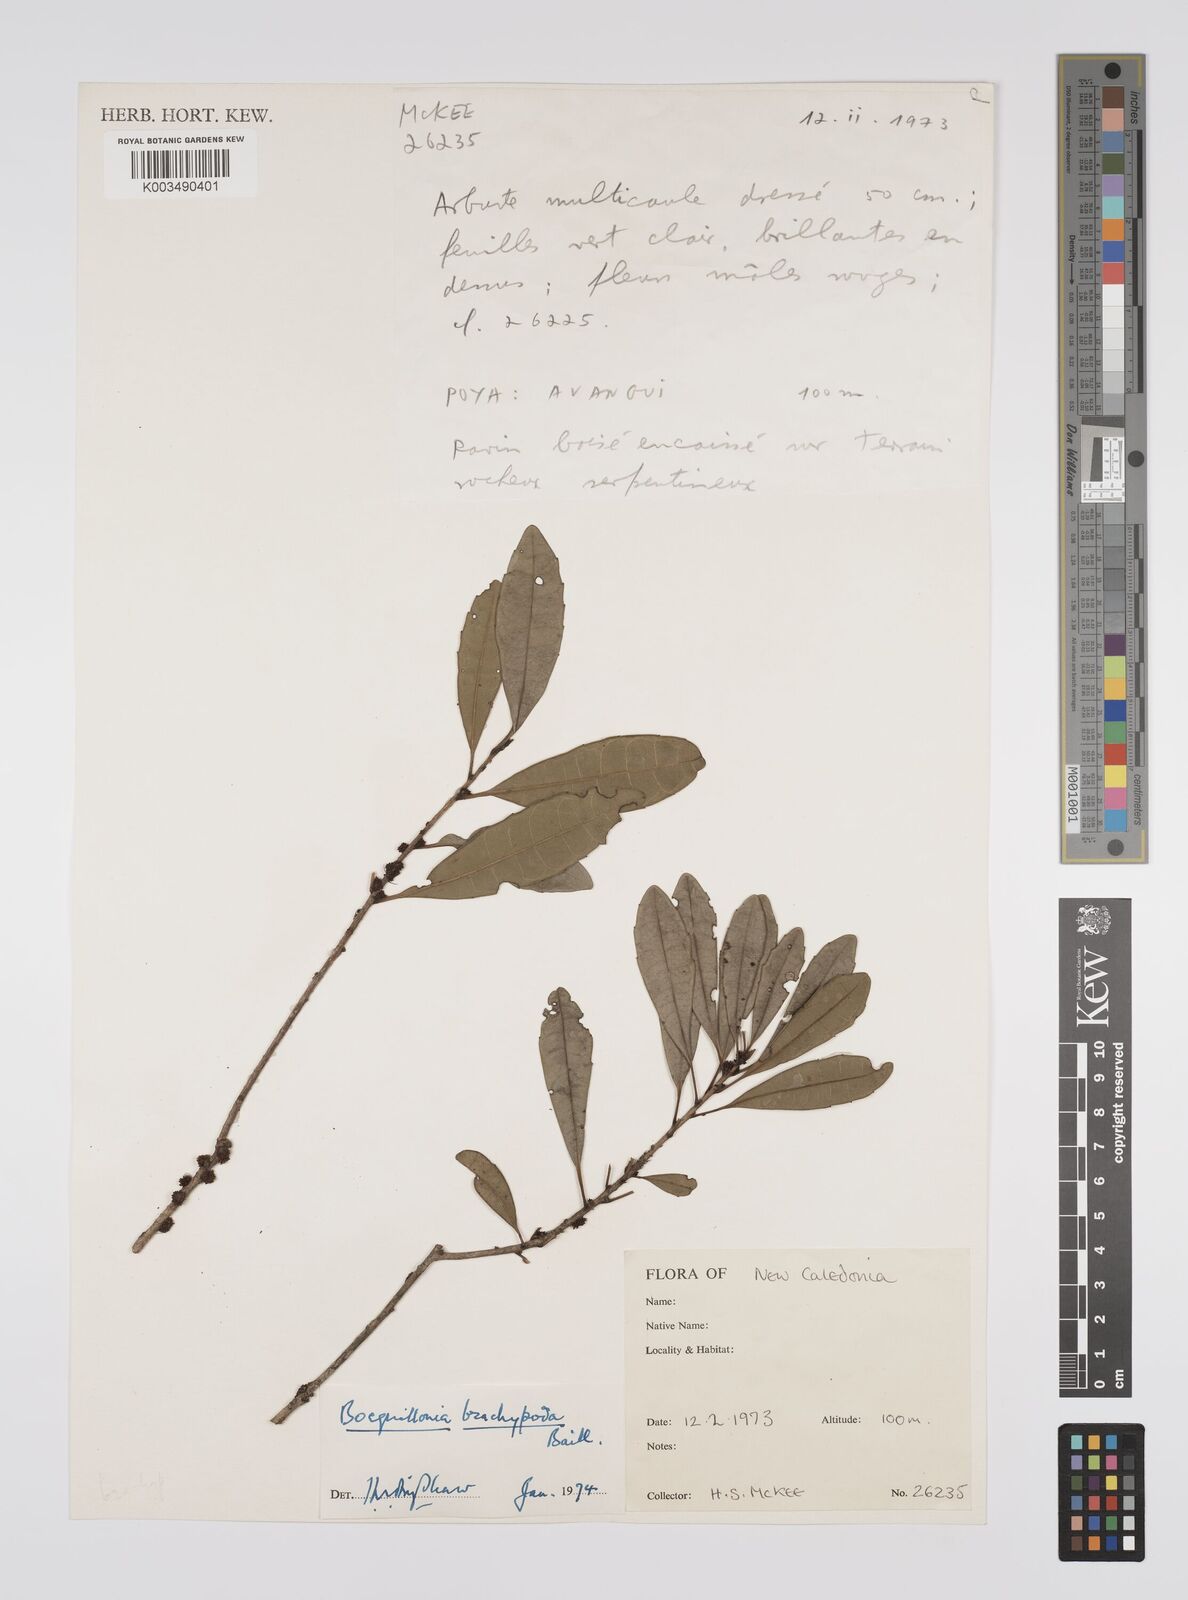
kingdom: Plantae
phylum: Tracheophyta
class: Magnoliopsida
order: Malpighiales
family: Euphorbiaceae
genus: Bocquillonia
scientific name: Bocquillonia brachypoda
